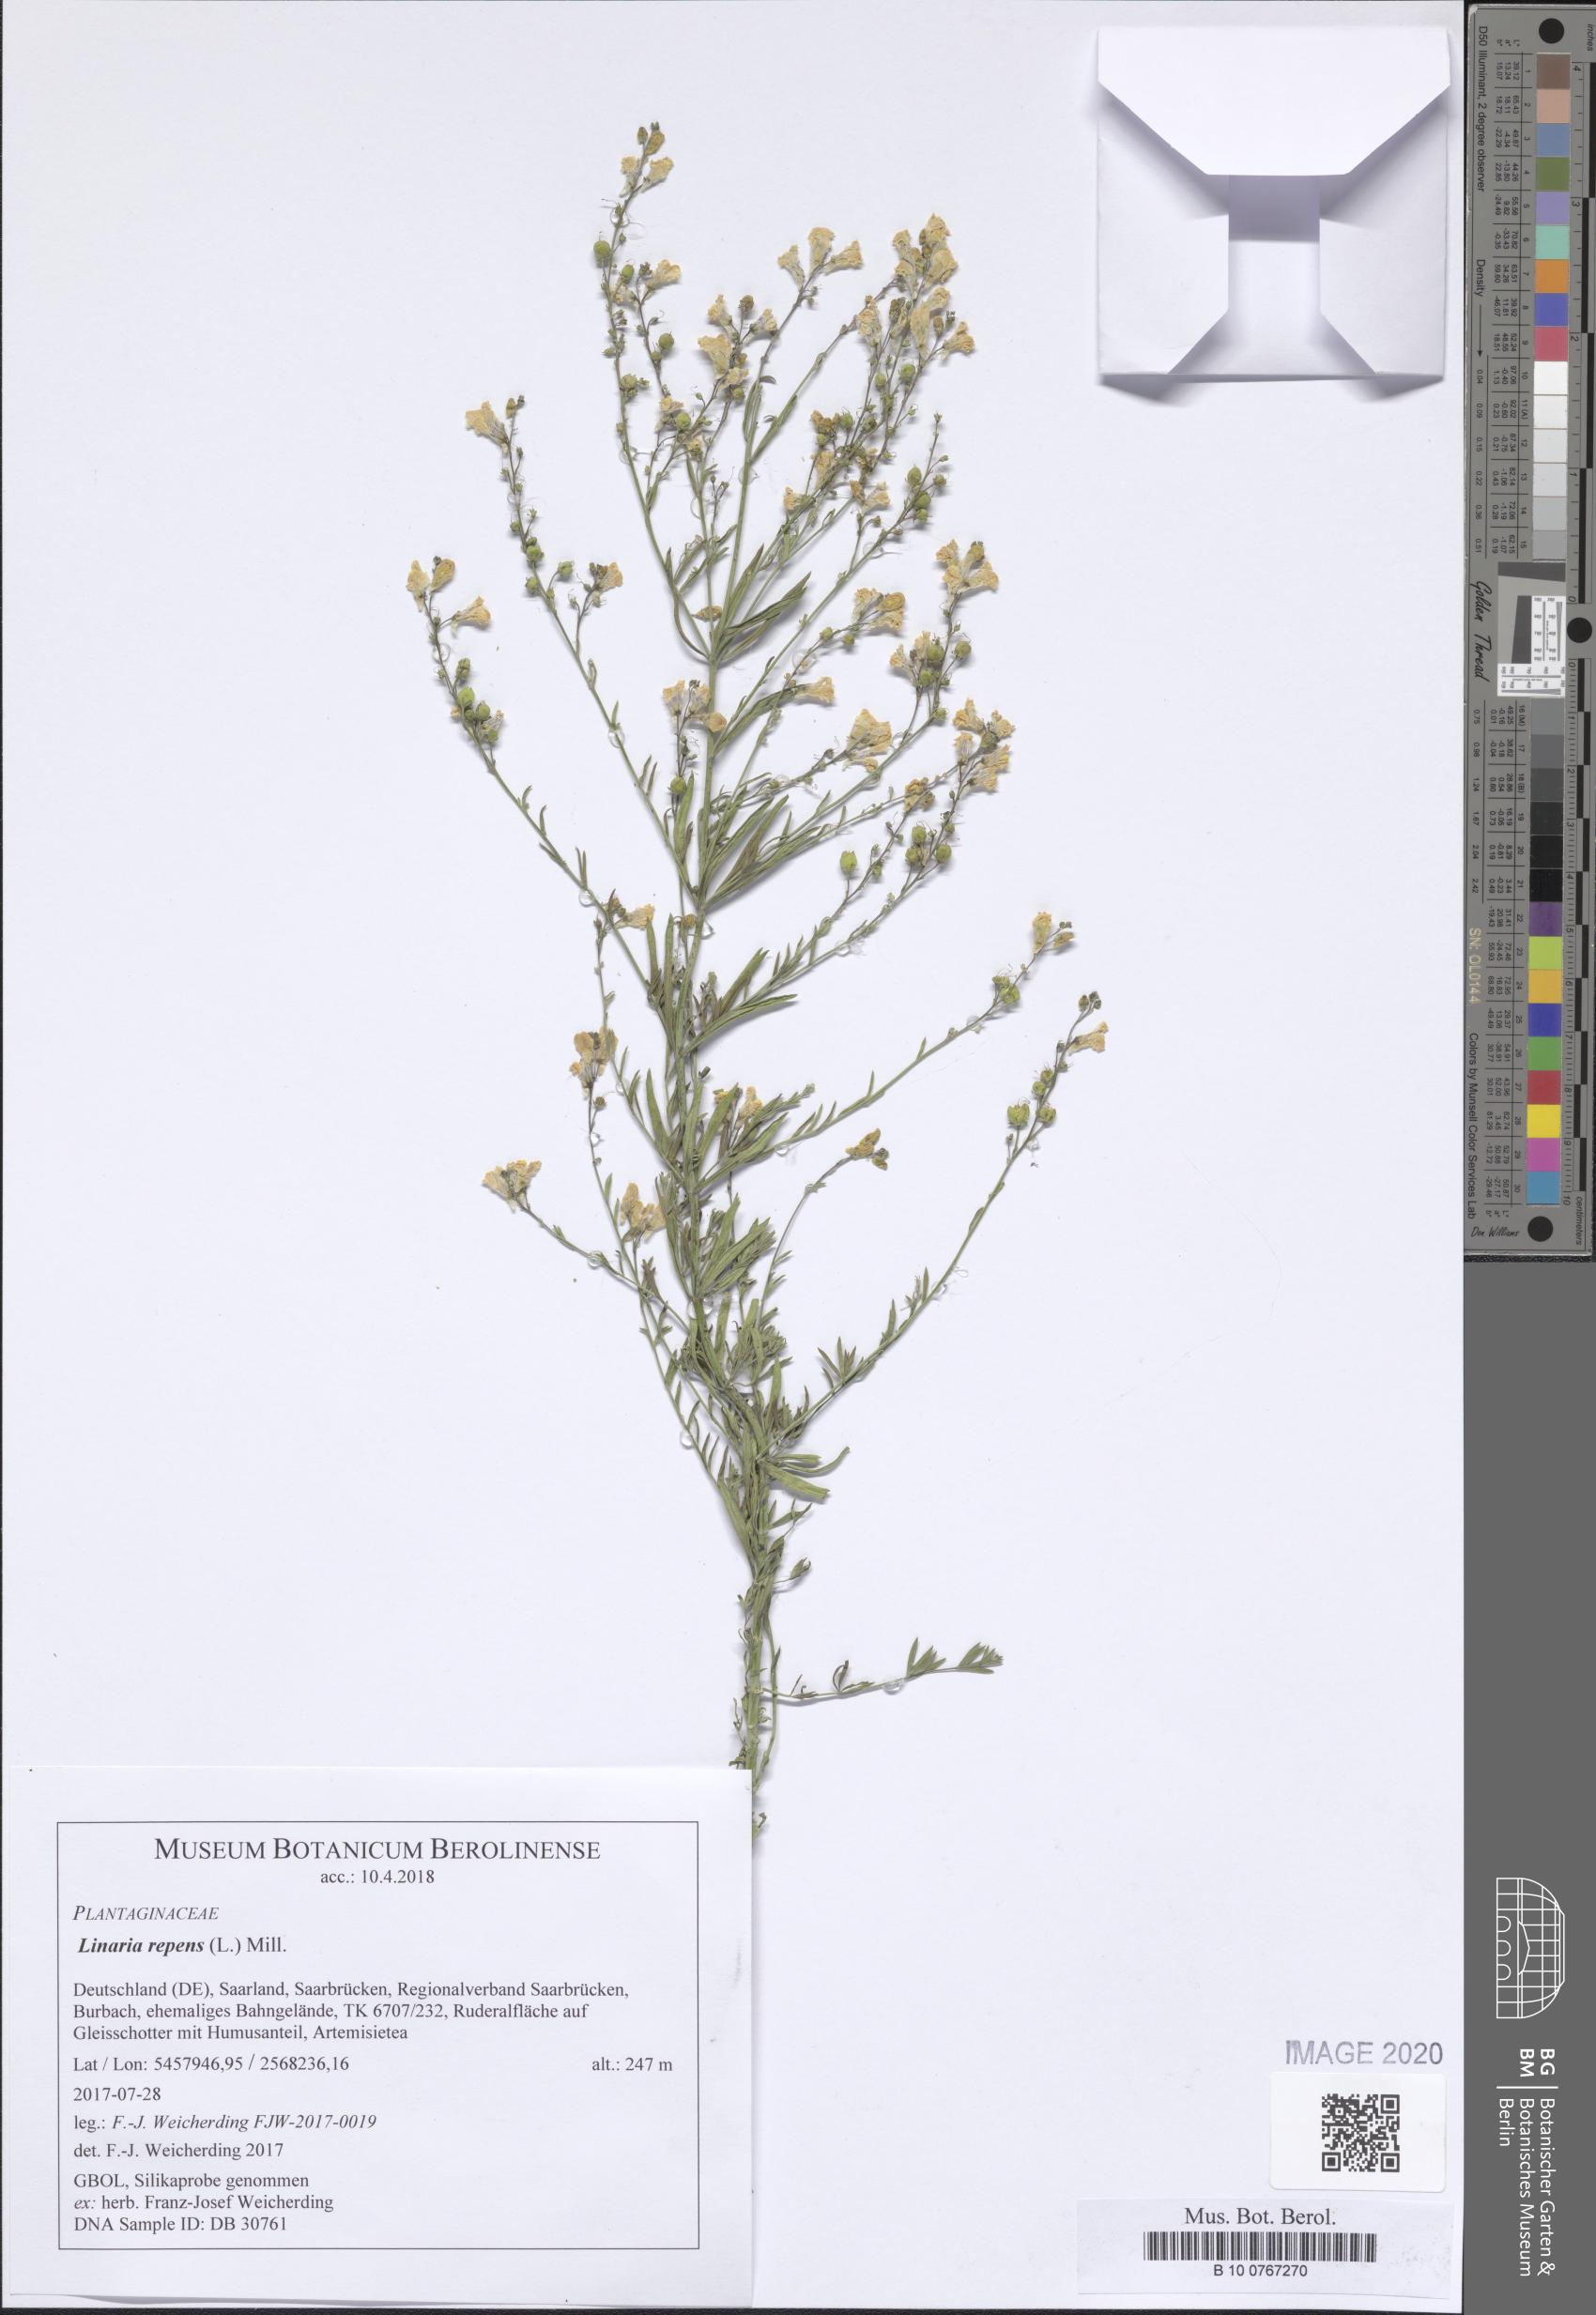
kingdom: Plantae
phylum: Tracheophyta
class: Magnoliopsida
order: Lamiales
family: Plantaginaceae
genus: Linaria
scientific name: Linaria repens
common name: Pale toadflax
